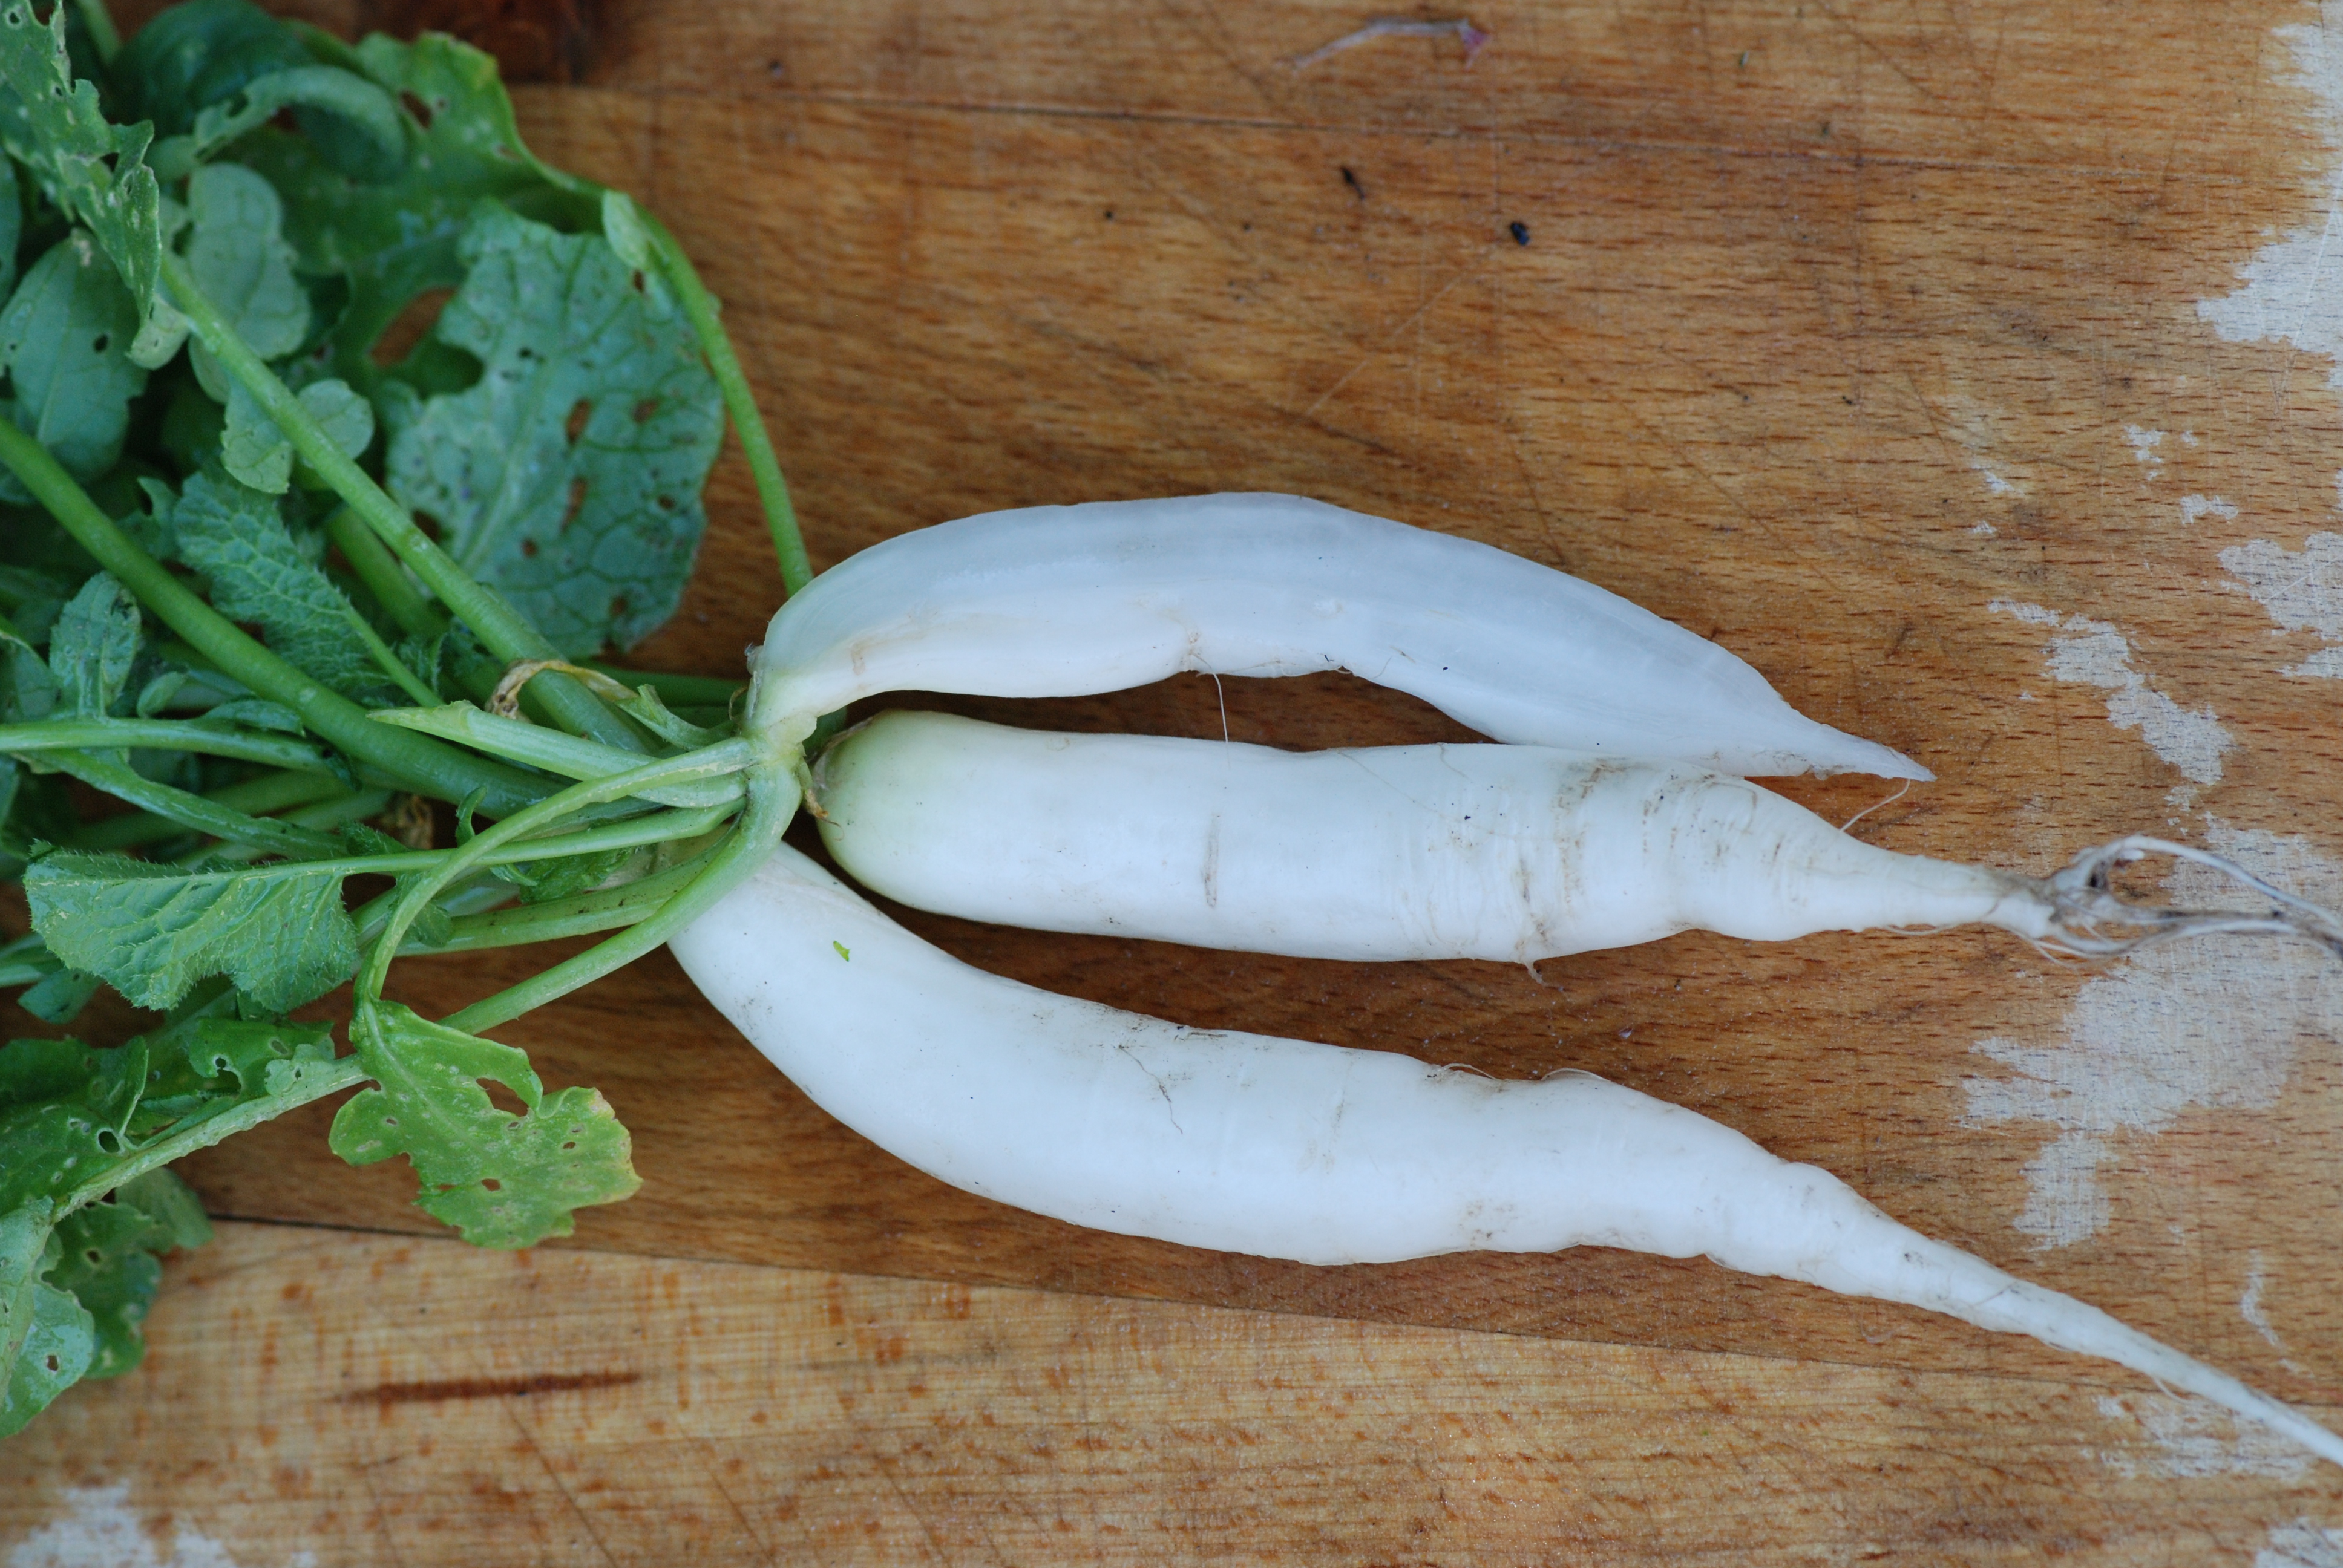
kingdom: Plantae
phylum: Tracheophyta
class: Magnoliopsida
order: Brassicales
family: Brassicaceae
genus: Raphanus
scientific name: Raphanus sativus
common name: Cultivated radish
